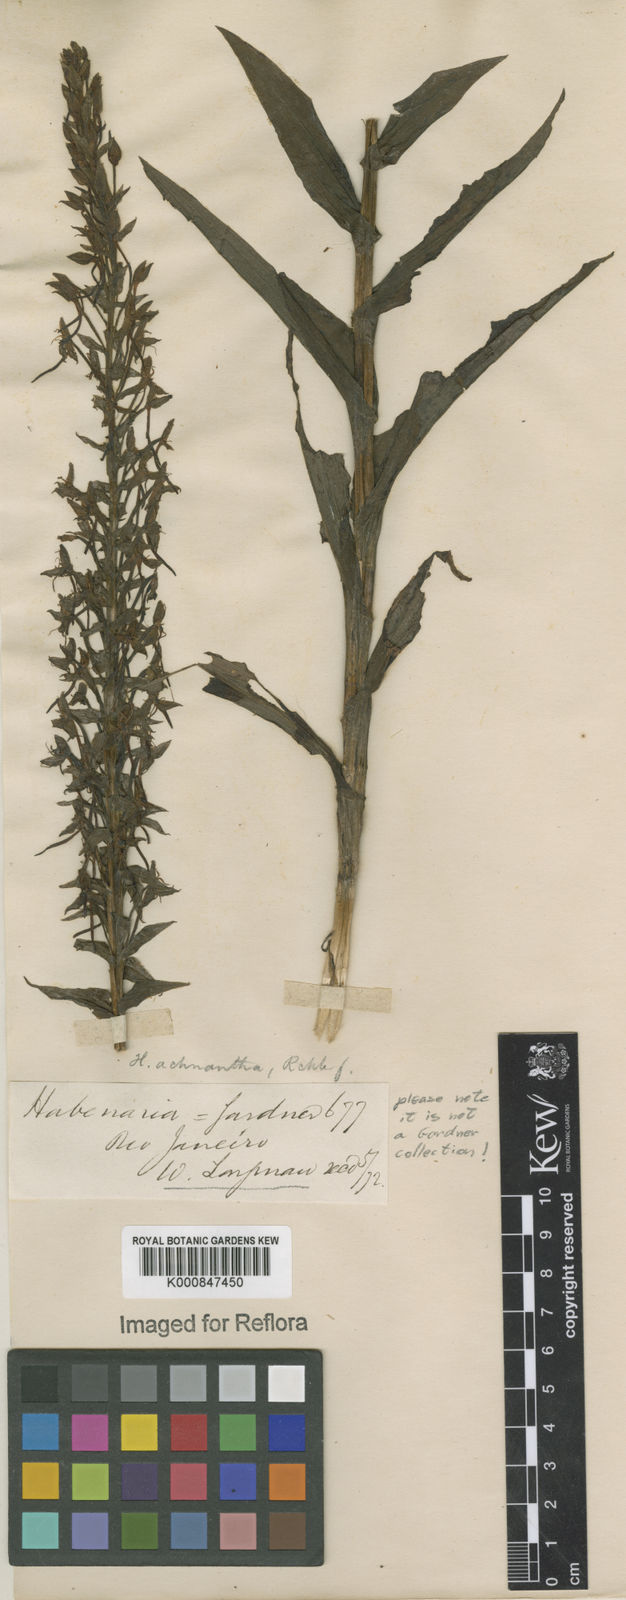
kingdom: Plantae
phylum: Tracheophyta
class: Liliopsida
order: Asparagales
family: Orchidaceae
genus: Habenaria
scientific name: Habenaria repens
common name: Water orchid
